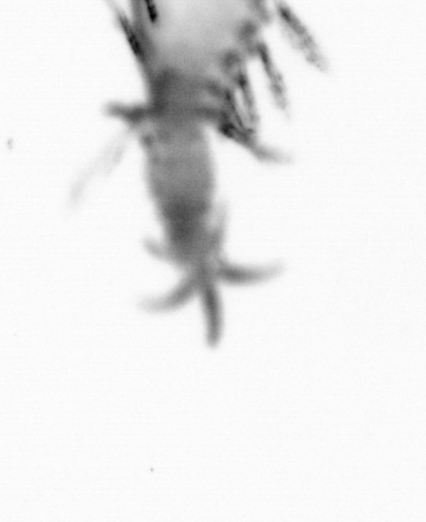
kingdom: Animalia
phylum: Annelida
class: Polychaeta
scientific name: Polychaeta
